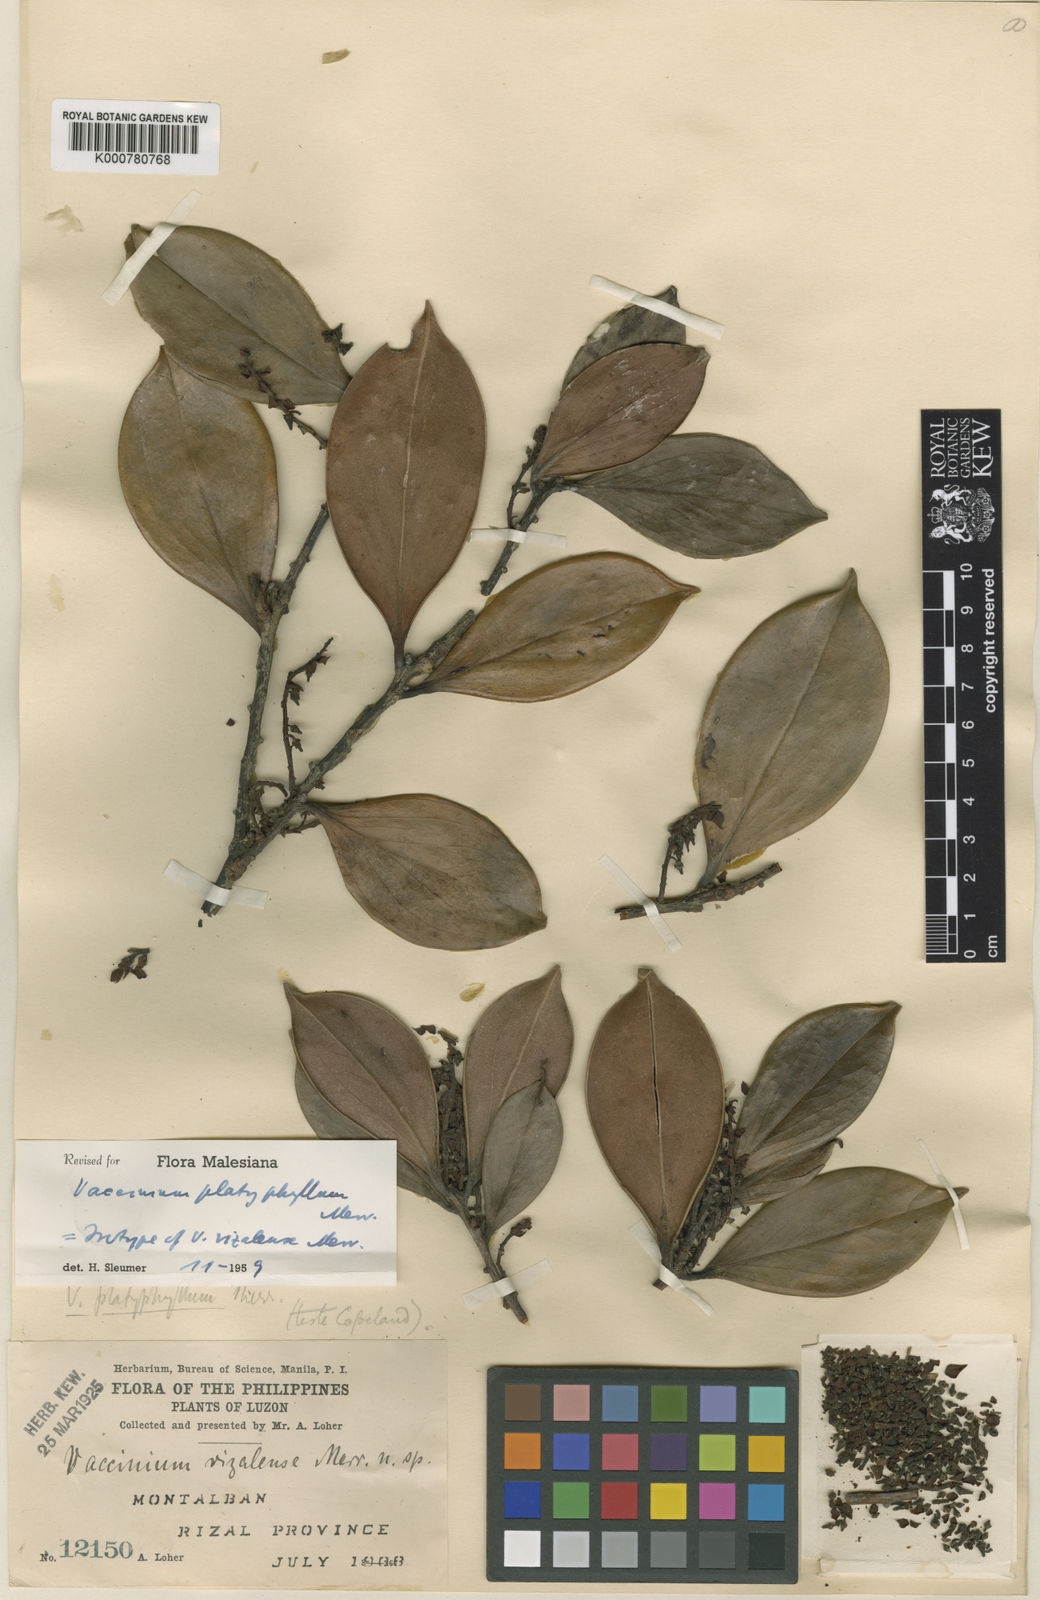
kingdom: Plantae
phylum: Tracheophyta
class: Magnoliopsida
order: Ericales
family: Ericaceae
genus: Vaccinium
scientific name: Vaccinium platyphyllum
